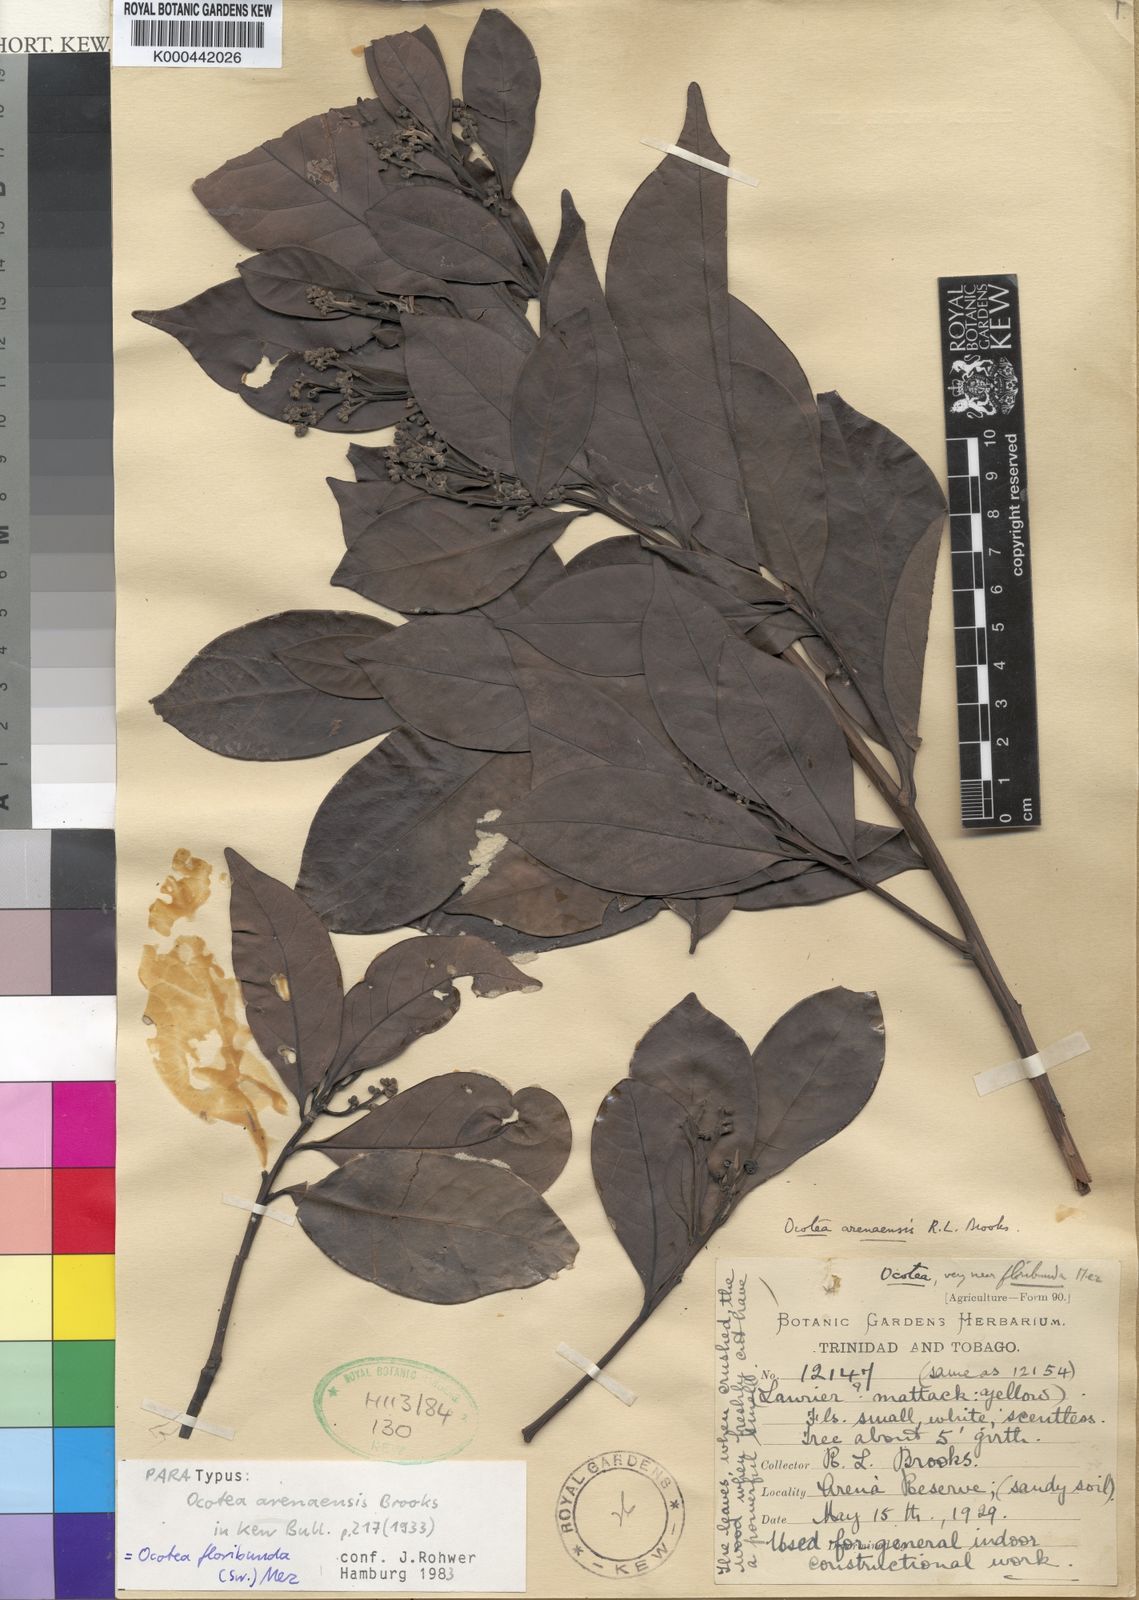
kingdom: Plantae
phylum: Tracheophyta
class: Magnoliopsida
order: Laurales
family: Lauraceae
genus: Ocotea
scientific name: Ocotea floribunda
